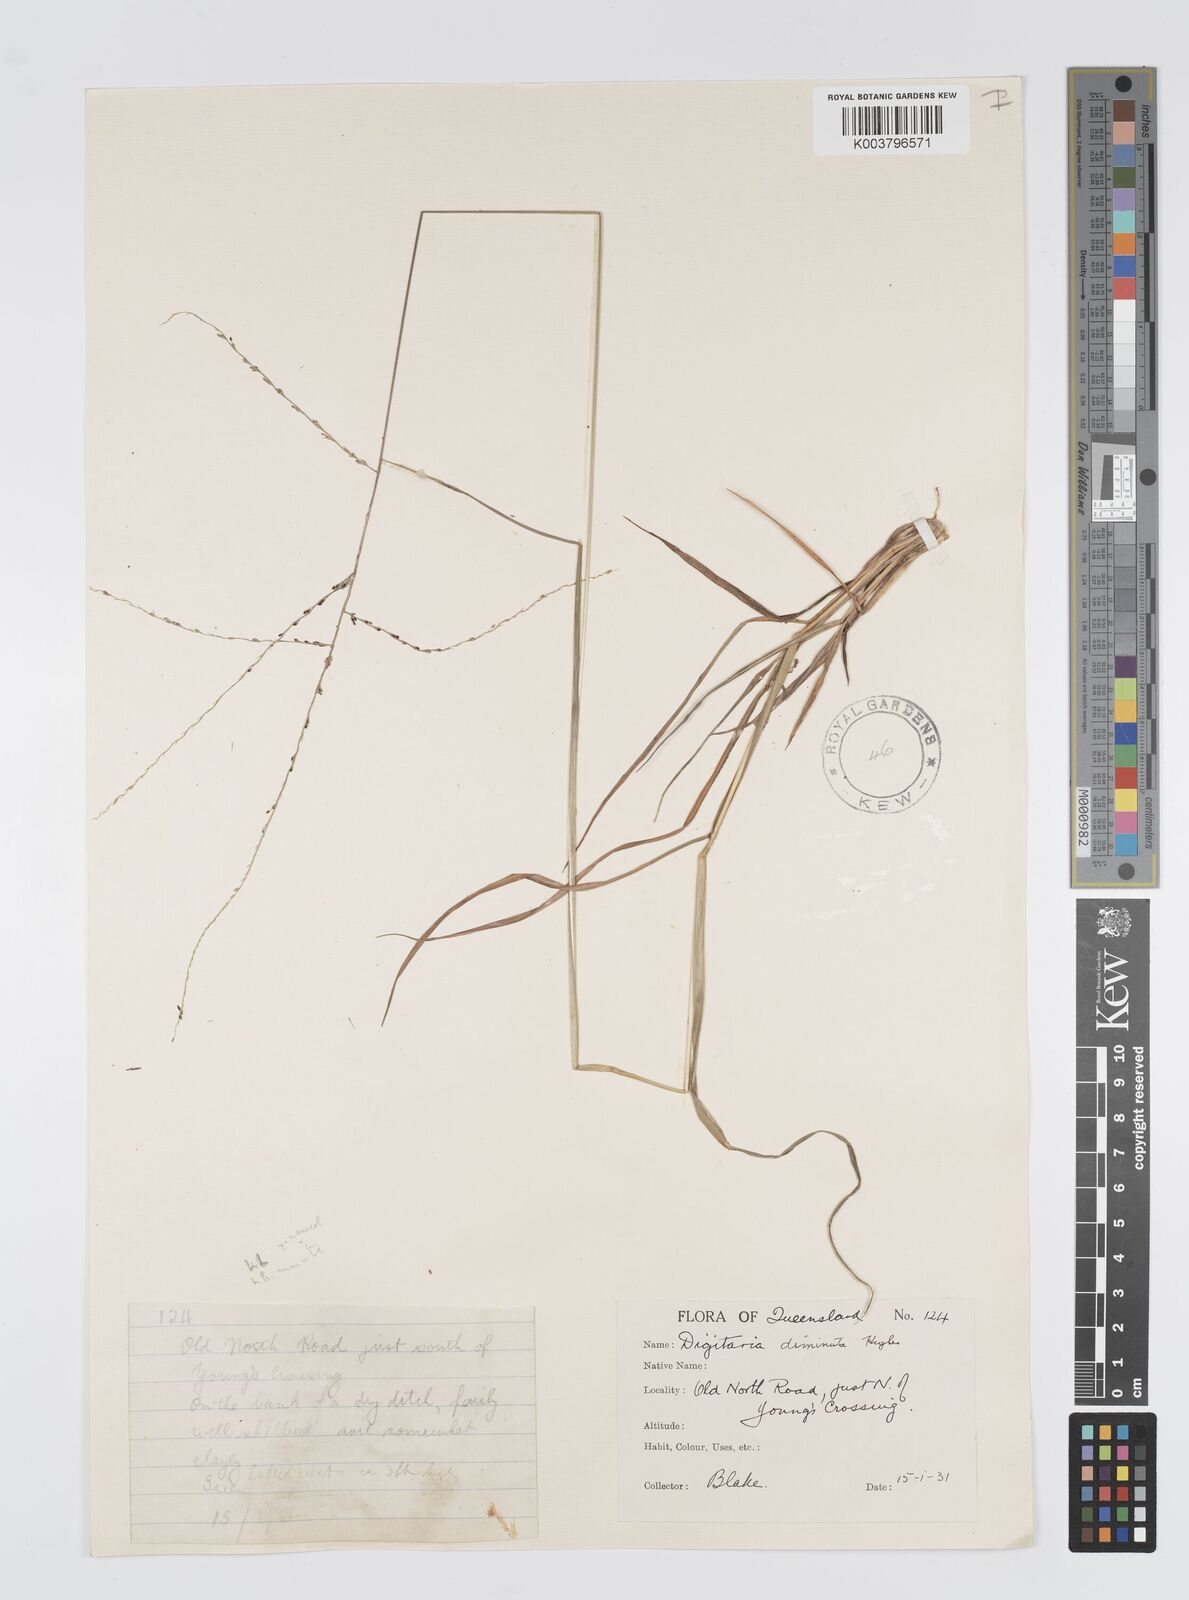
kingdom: Plantae
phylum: Tracheophyta
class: Liliopsida
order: Poales
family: Poaceae
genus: Digitaria
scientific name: Digitaria breviglumis
